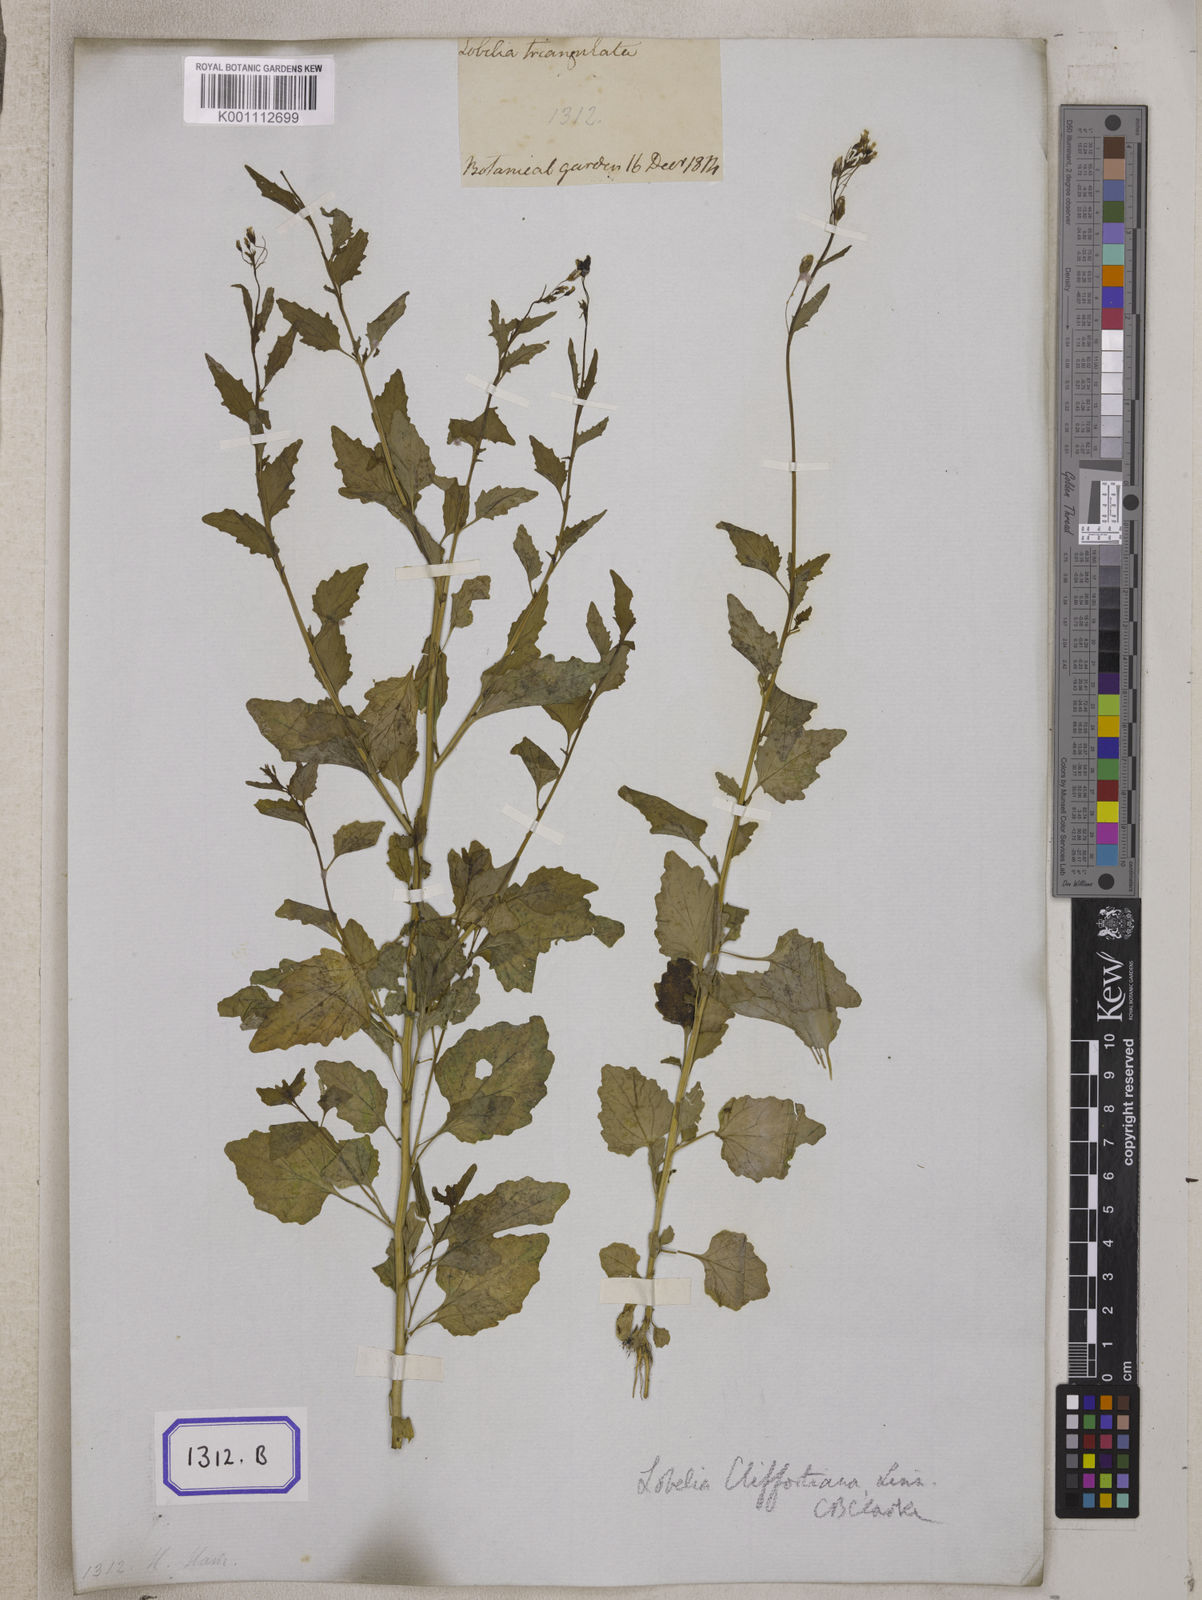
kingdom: Plantae
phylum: Tracheophyta
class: Magnoliopsida
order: Asterales
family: Campanulaceae
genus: Lobelia
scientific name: Lobelia
